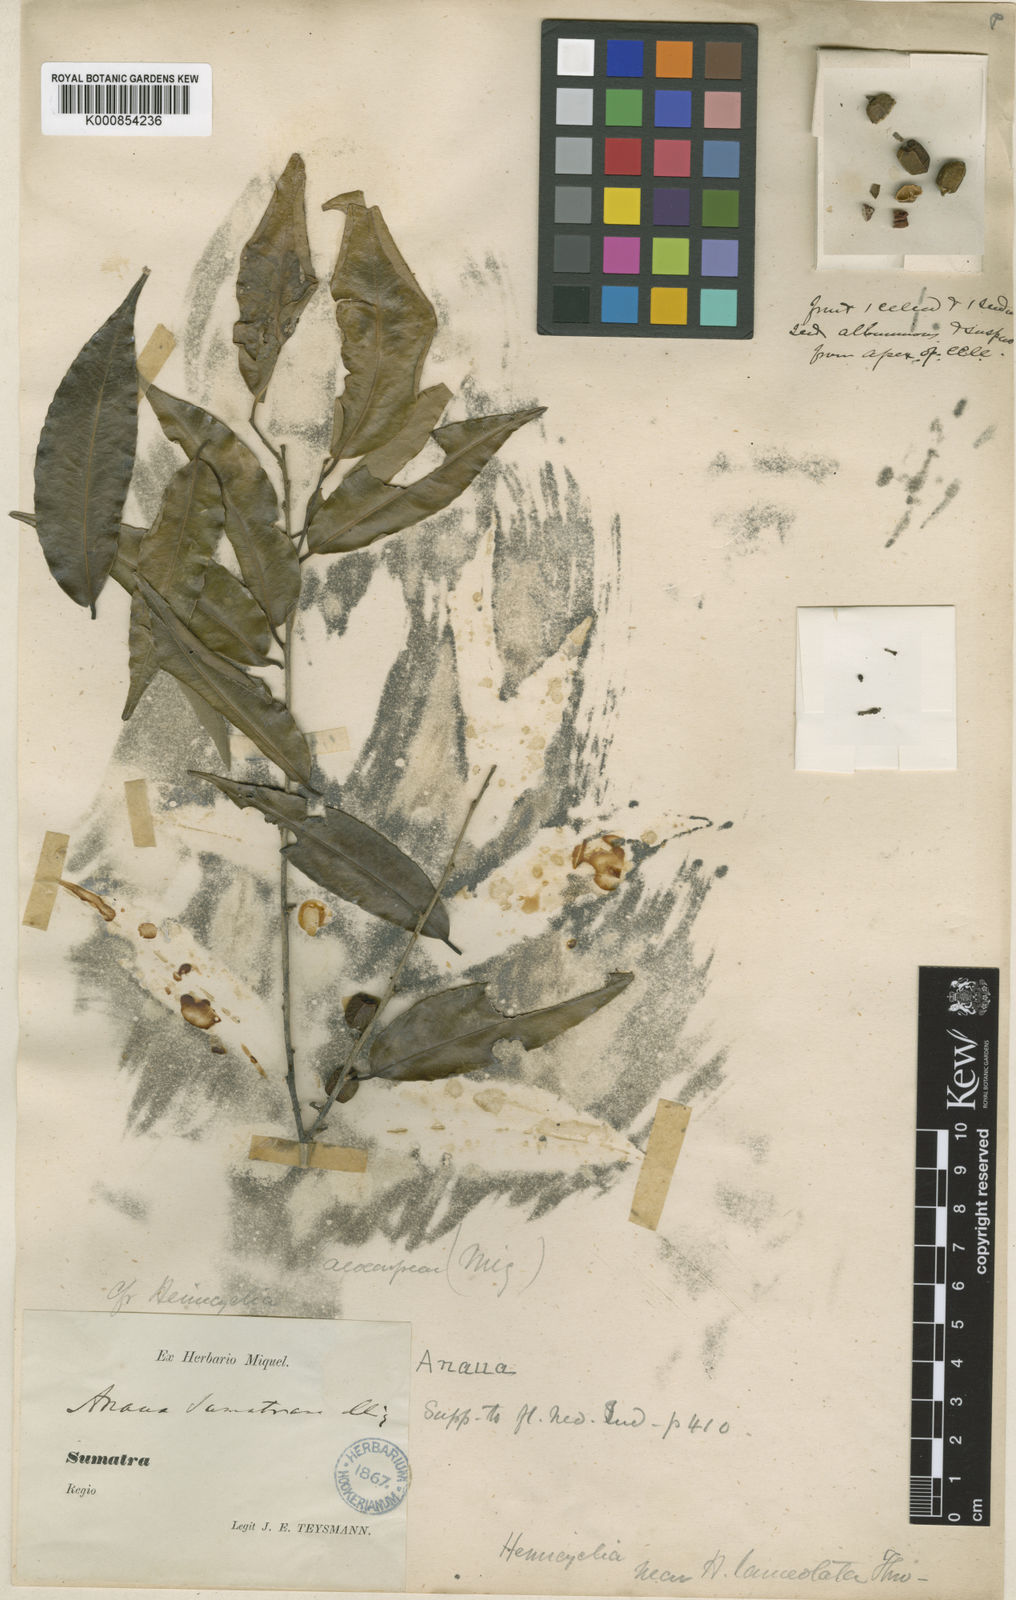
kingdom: Plantae
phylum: Tracheophyta
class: Magnoliopsida
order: Malpighiales
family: Putranjivaceae
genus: Drypetes
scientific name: Drypetes sumatrana
